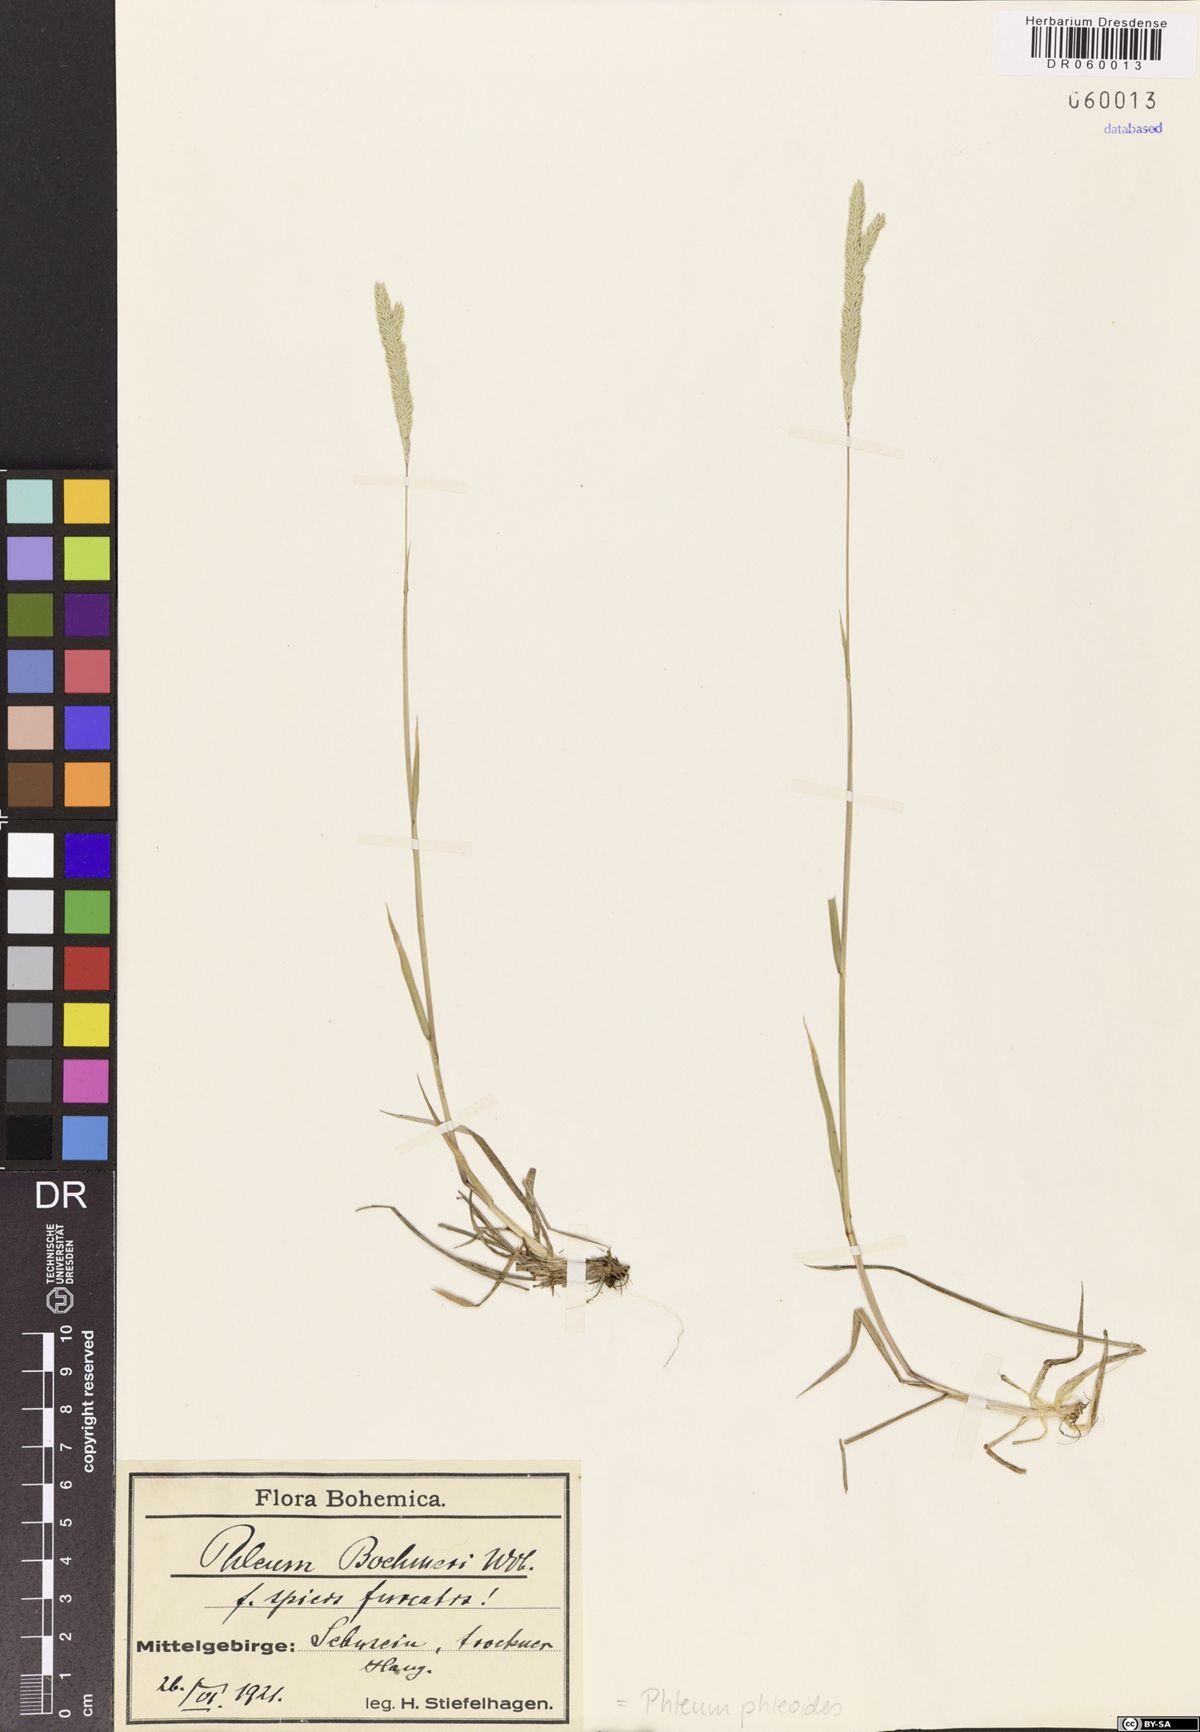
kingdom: Plantae
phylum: Tracheophyta
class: Liliopsida
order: Poales
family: Poaceae
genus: Phleum
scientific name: Phleum phleoides
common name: Purple-stem cat's-tail
